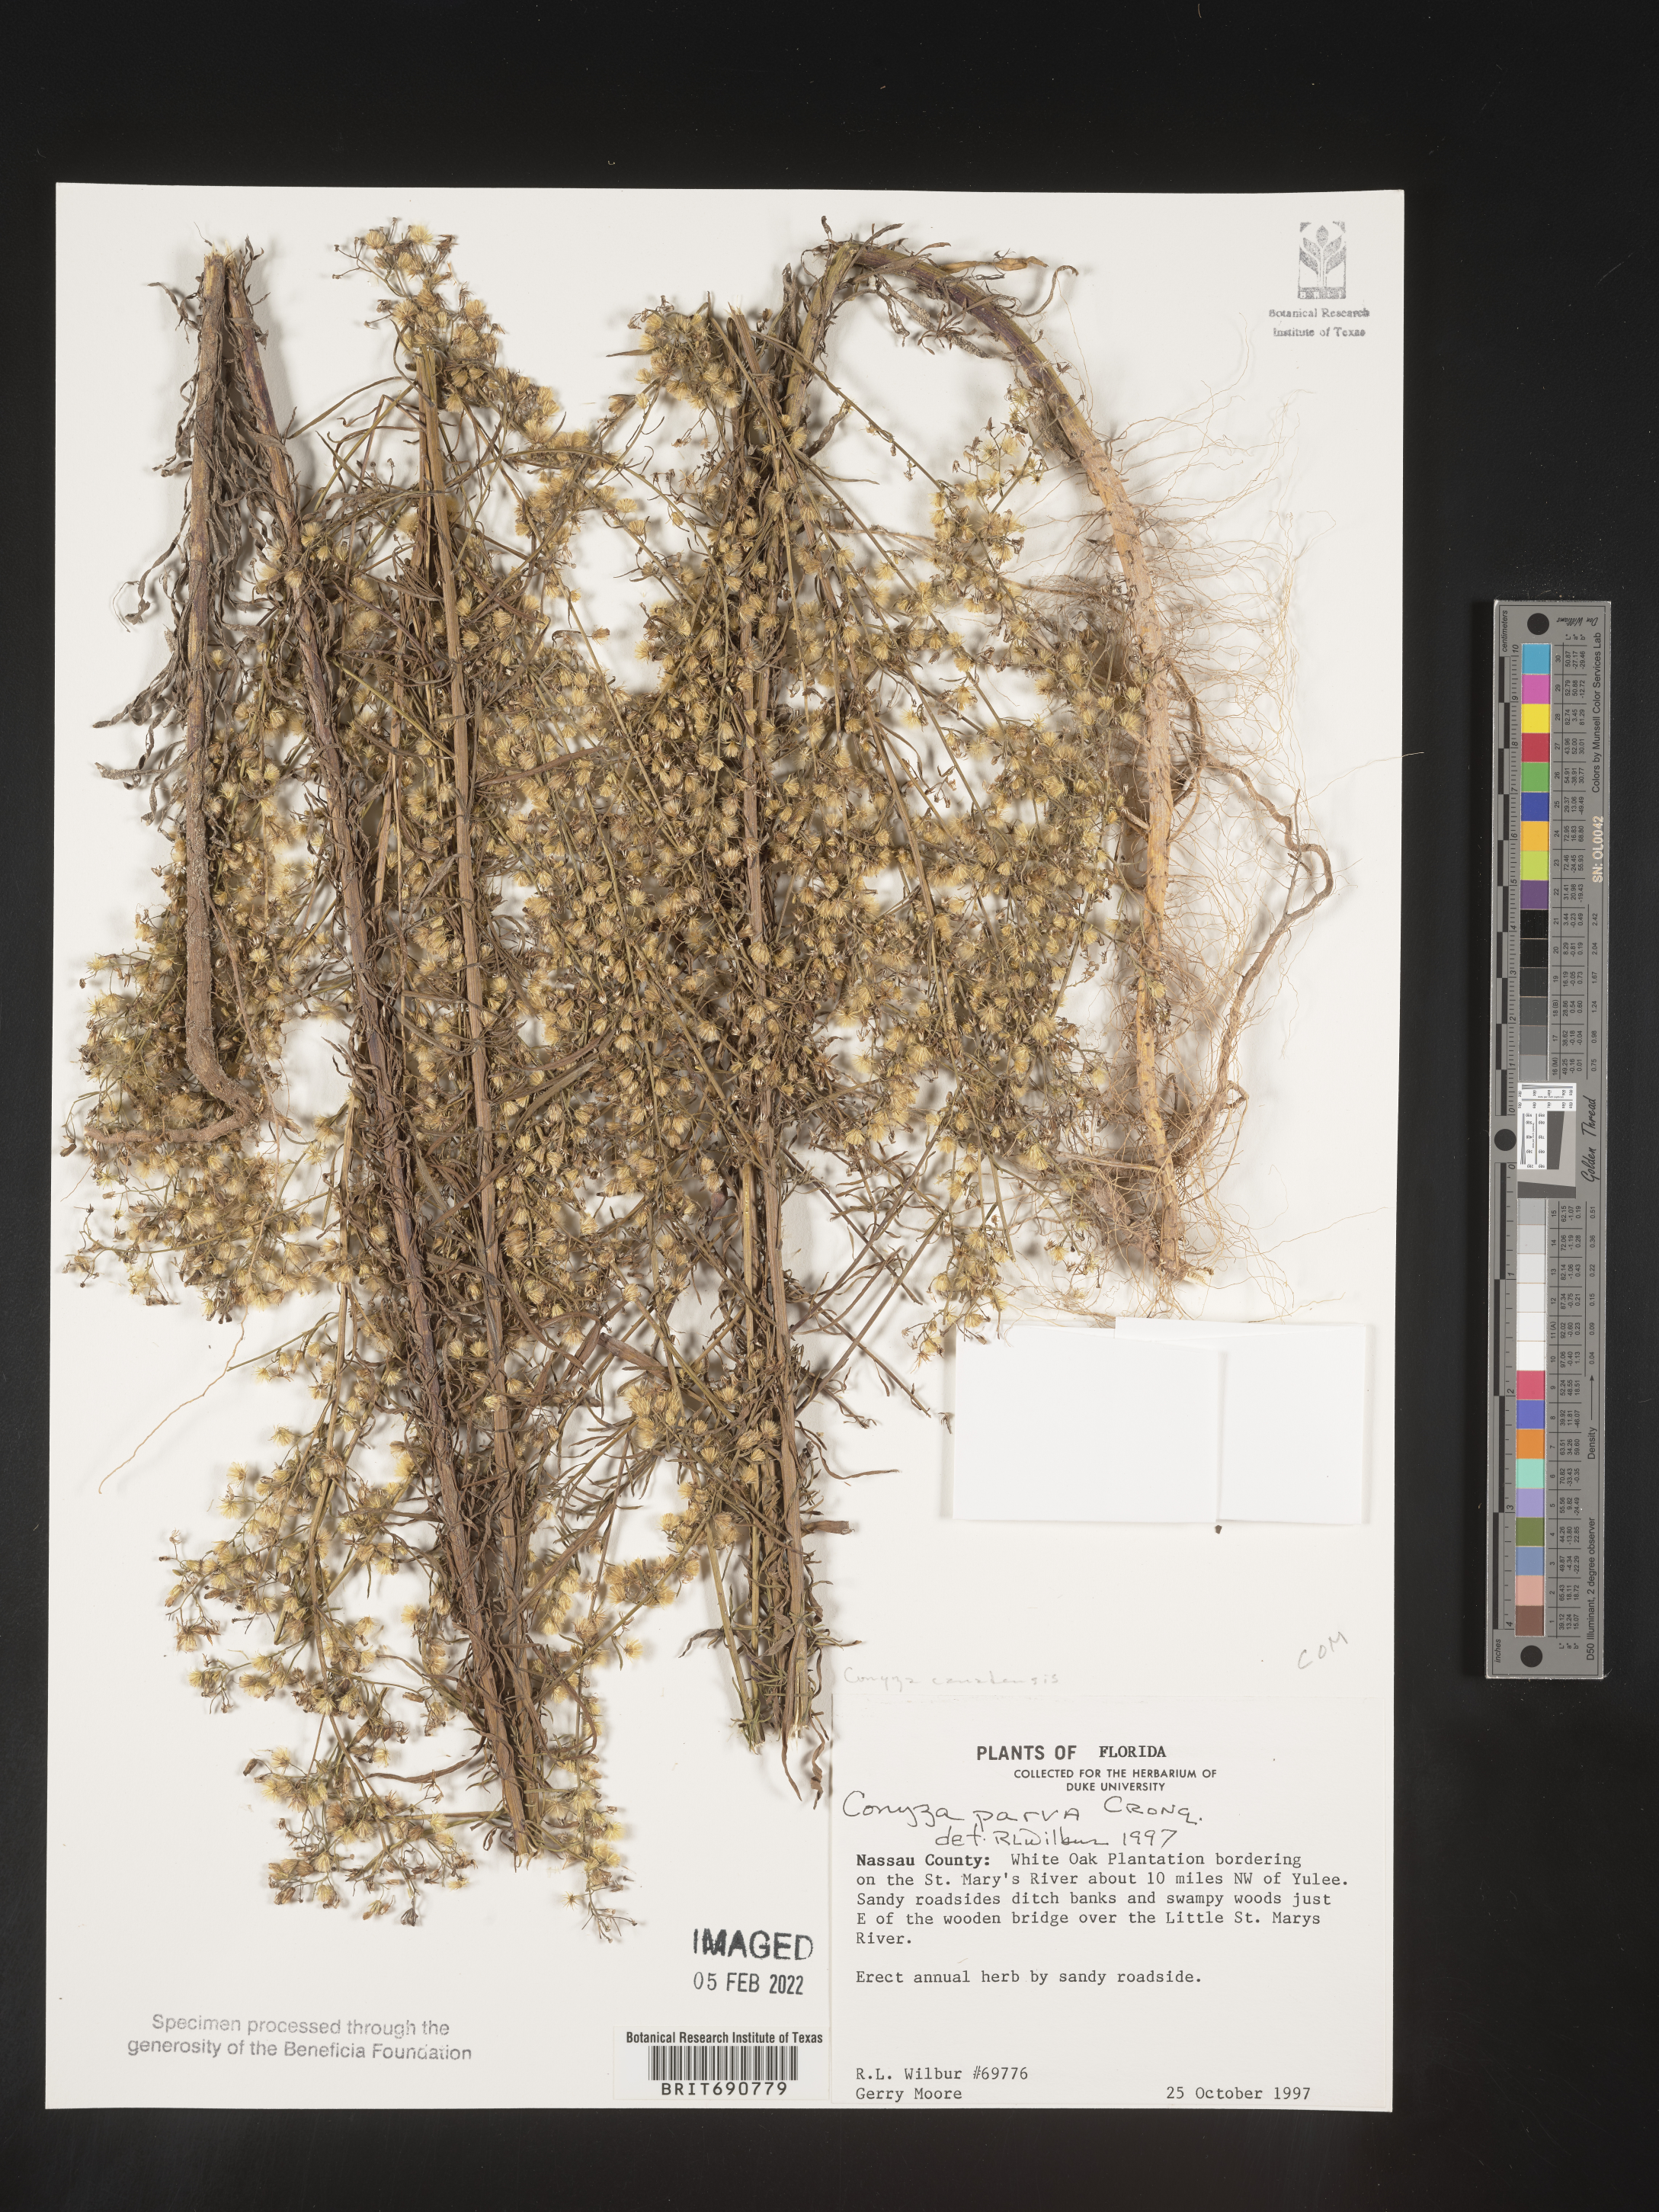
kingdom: Plantae
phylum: Tracheophyta
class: Magnoliopsida
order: Asterales
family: Asteraceae
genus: Erigeron
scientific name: Erigeron canadensis
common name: Canadian fleabane
